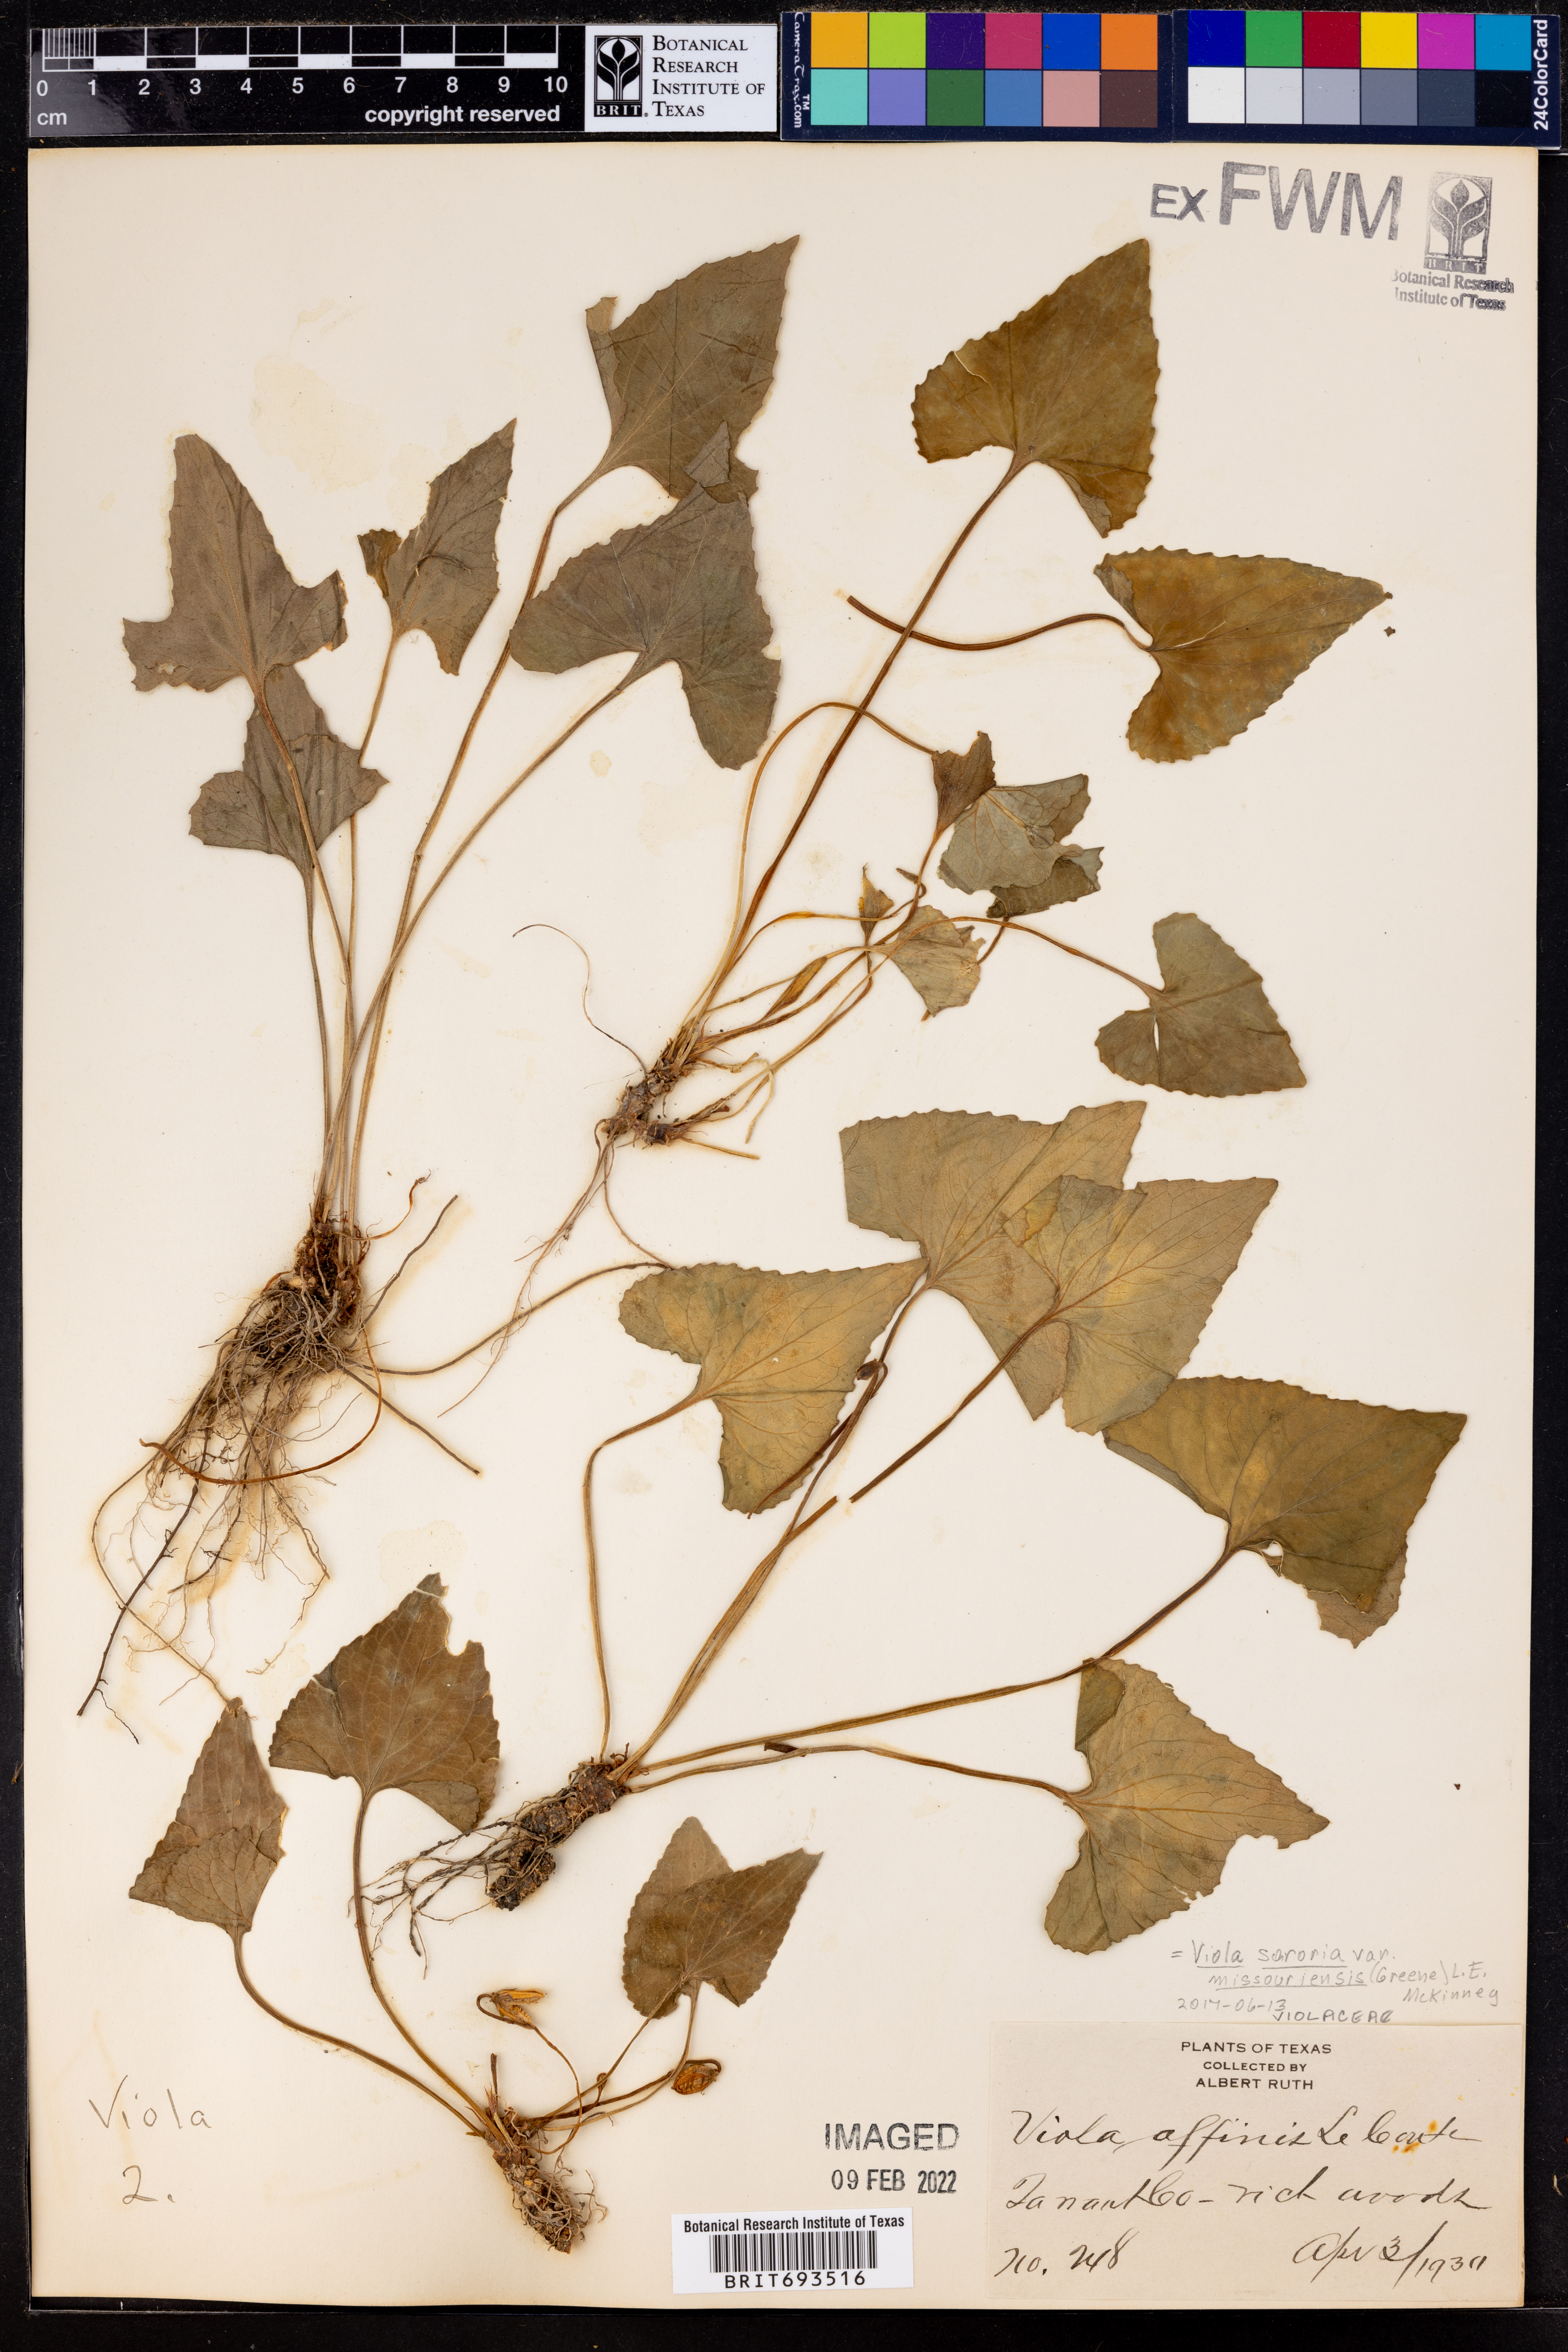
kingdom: Plantae
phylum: Tracheophyta
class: Magnoliopsida
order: Malpighiales
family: Violaceae
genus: Viola
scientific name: Viola missouriensis
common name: Missouri violet
